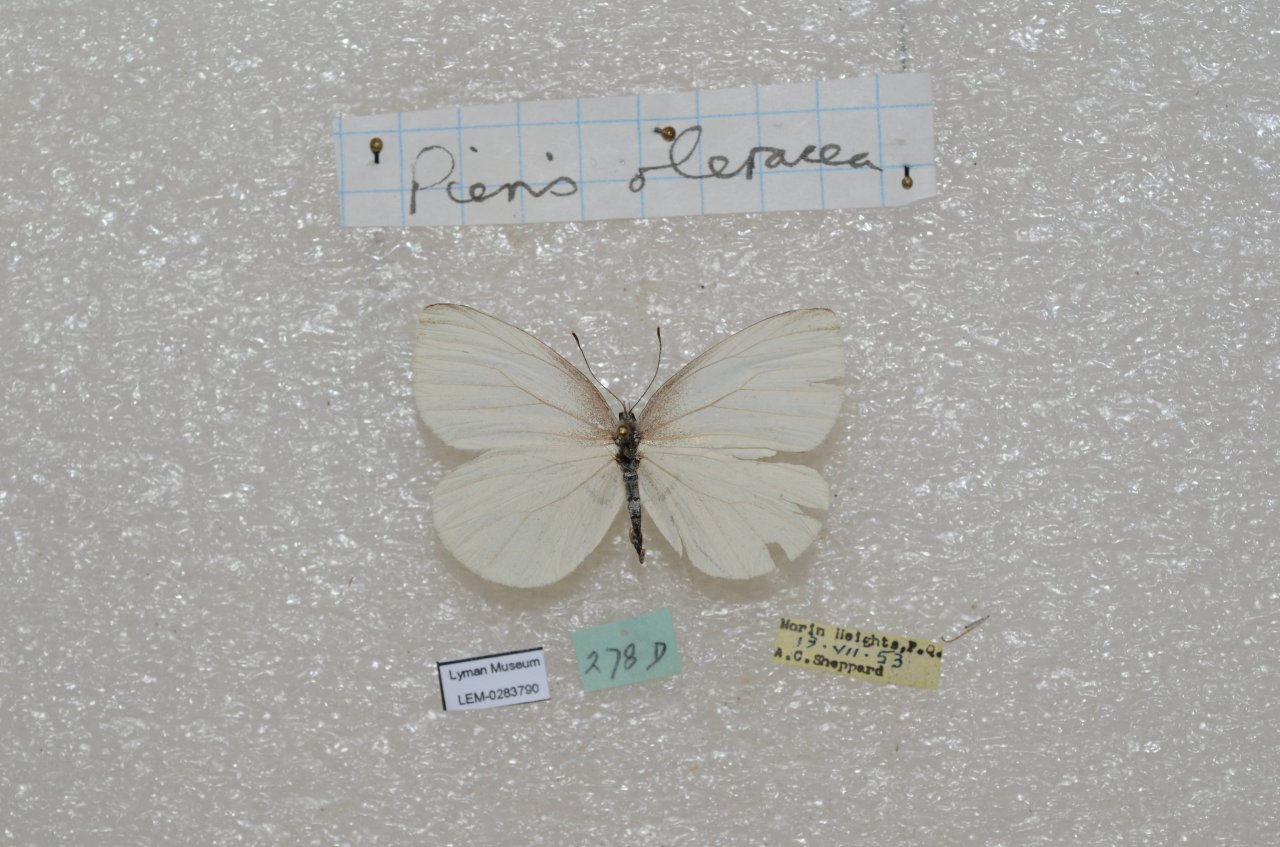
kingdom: Animalia
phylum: Arthropoda
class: Insecta
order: Lepidoptera
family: Pieridae
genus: Pieris
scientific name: Pieris oleracea
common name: Mustard White
